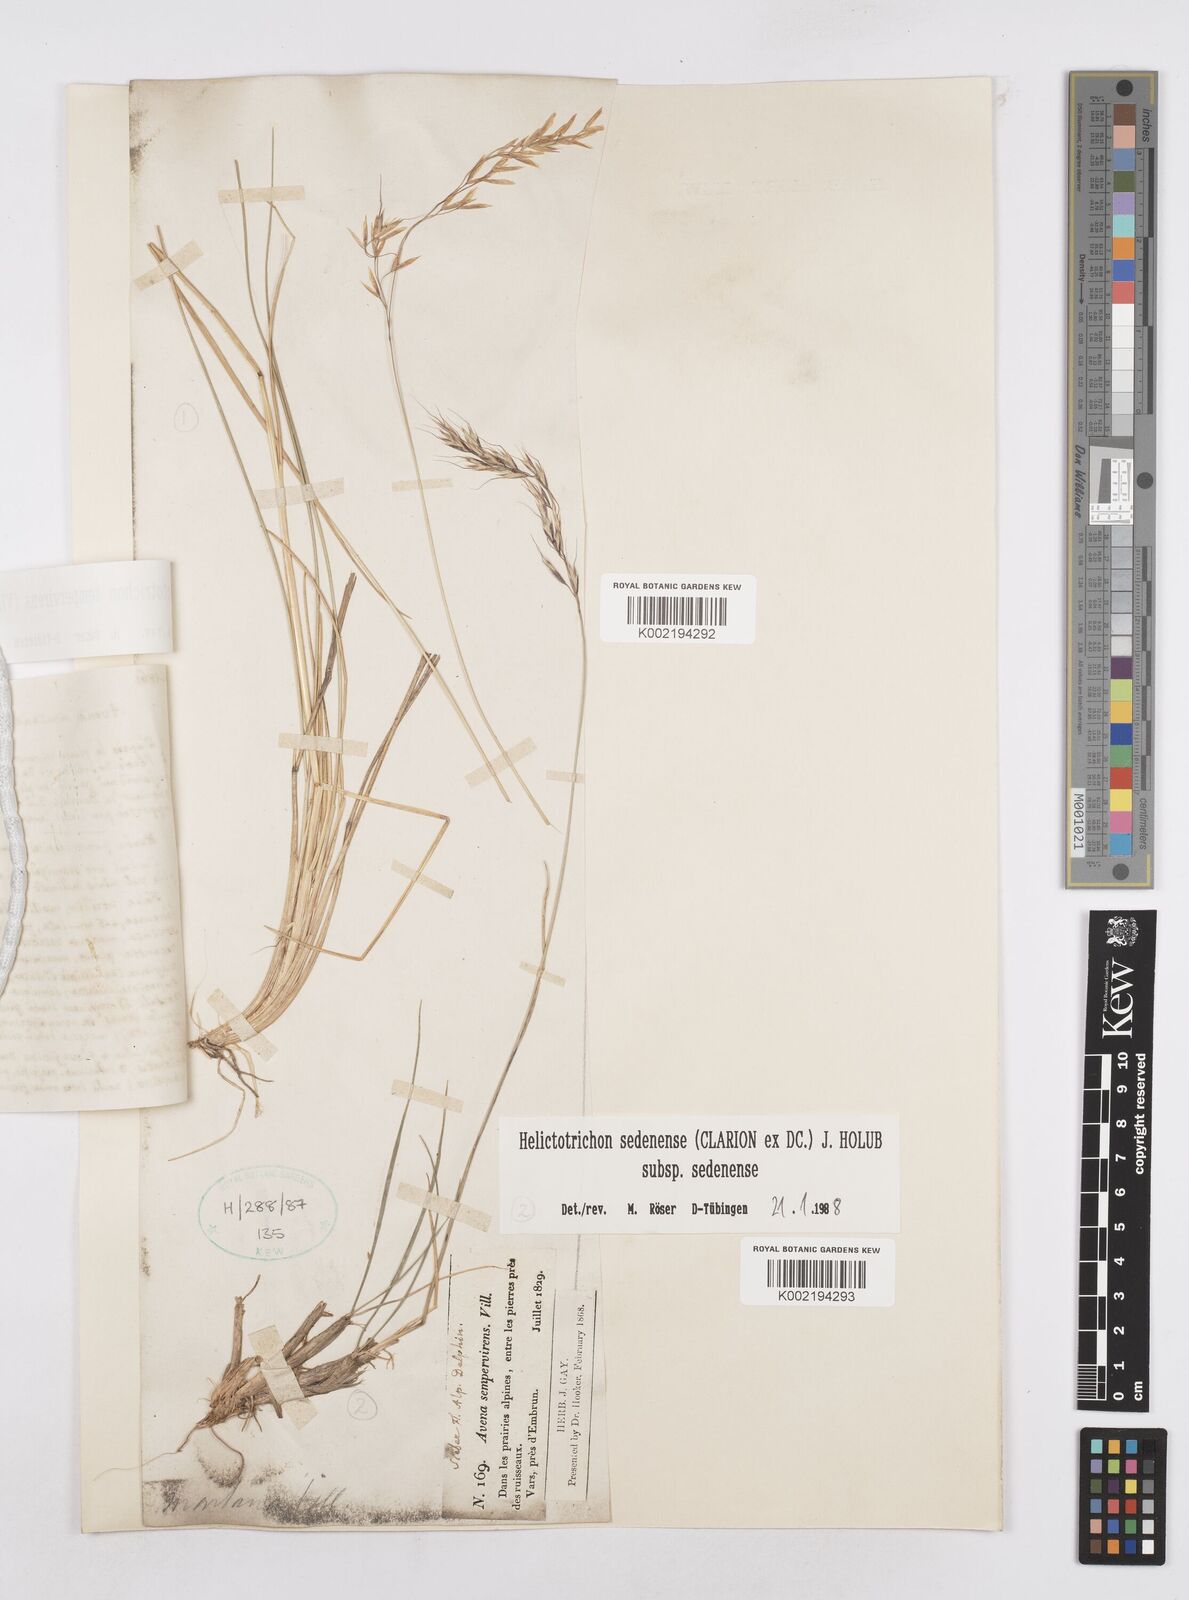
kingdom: Plantae
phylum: Tracheophyta
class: Liliopsida
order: Poales
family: Poaceae
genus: Helictotrichon
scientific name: Helictotrichon sedenense
